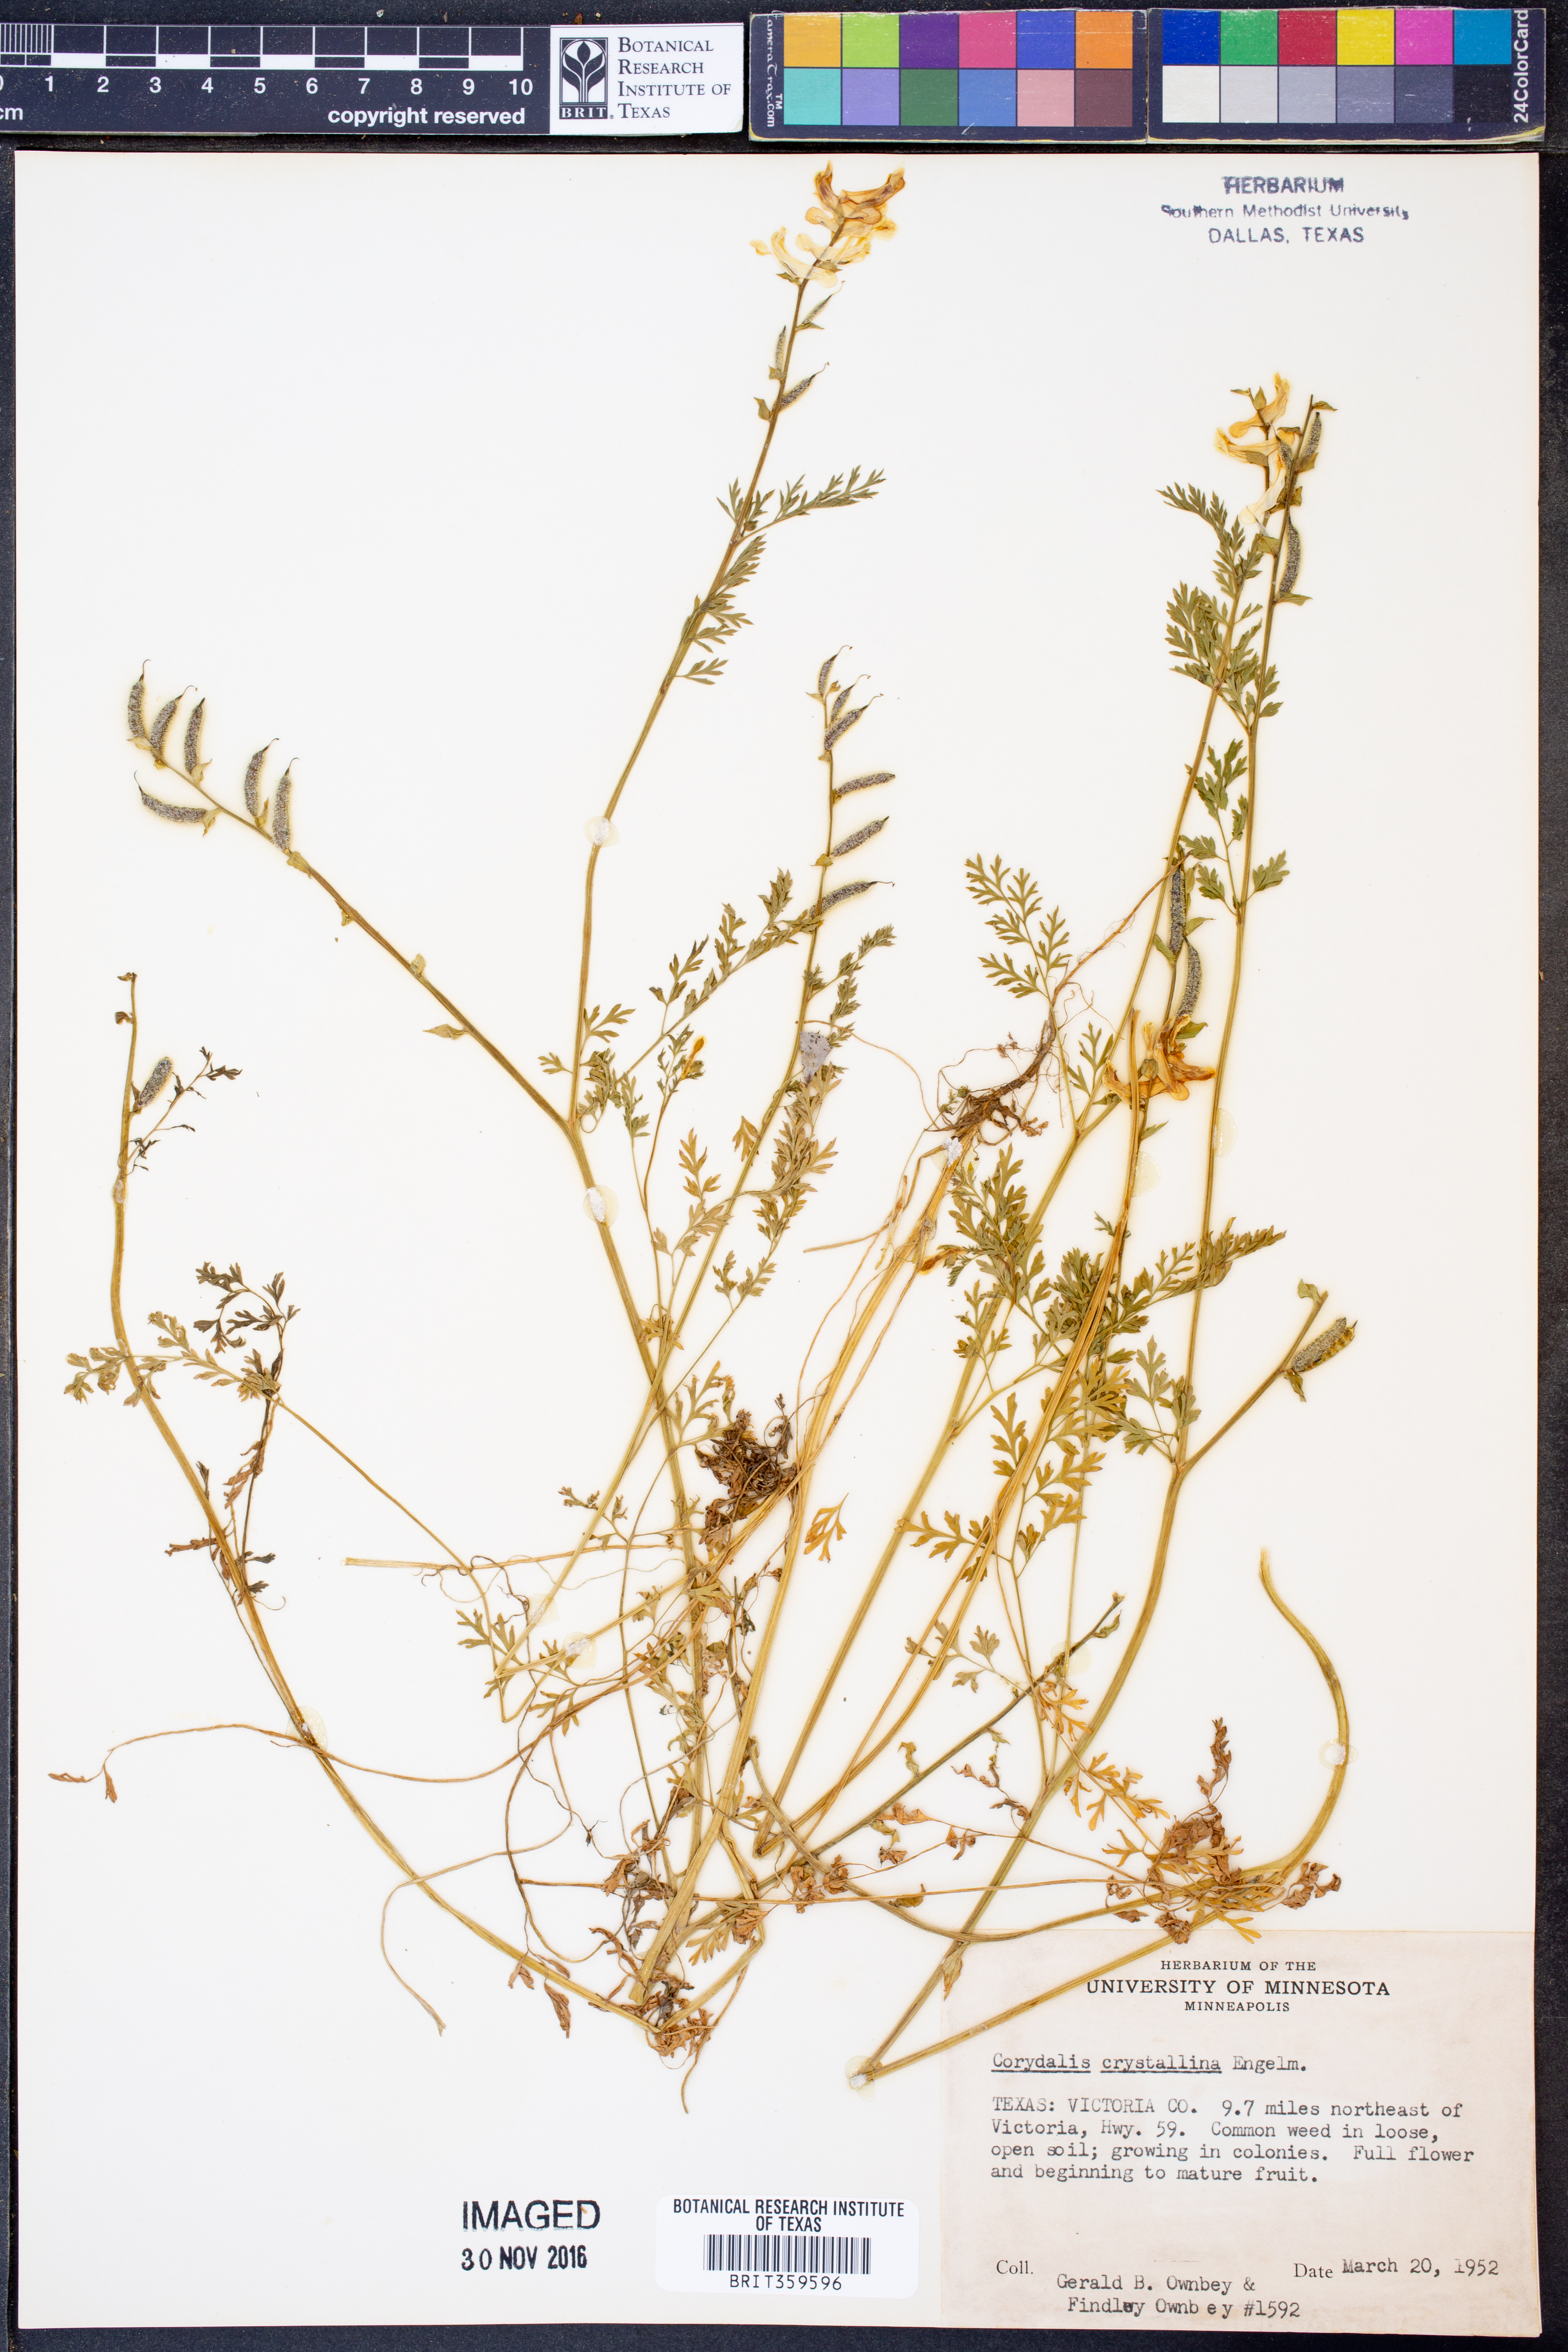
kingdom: Plantae
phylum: Tracheophyta
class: Magnoliopsida
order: Ranunculales
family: Papaveraceae
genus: Corydalis
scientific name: Corydalis crystallina
